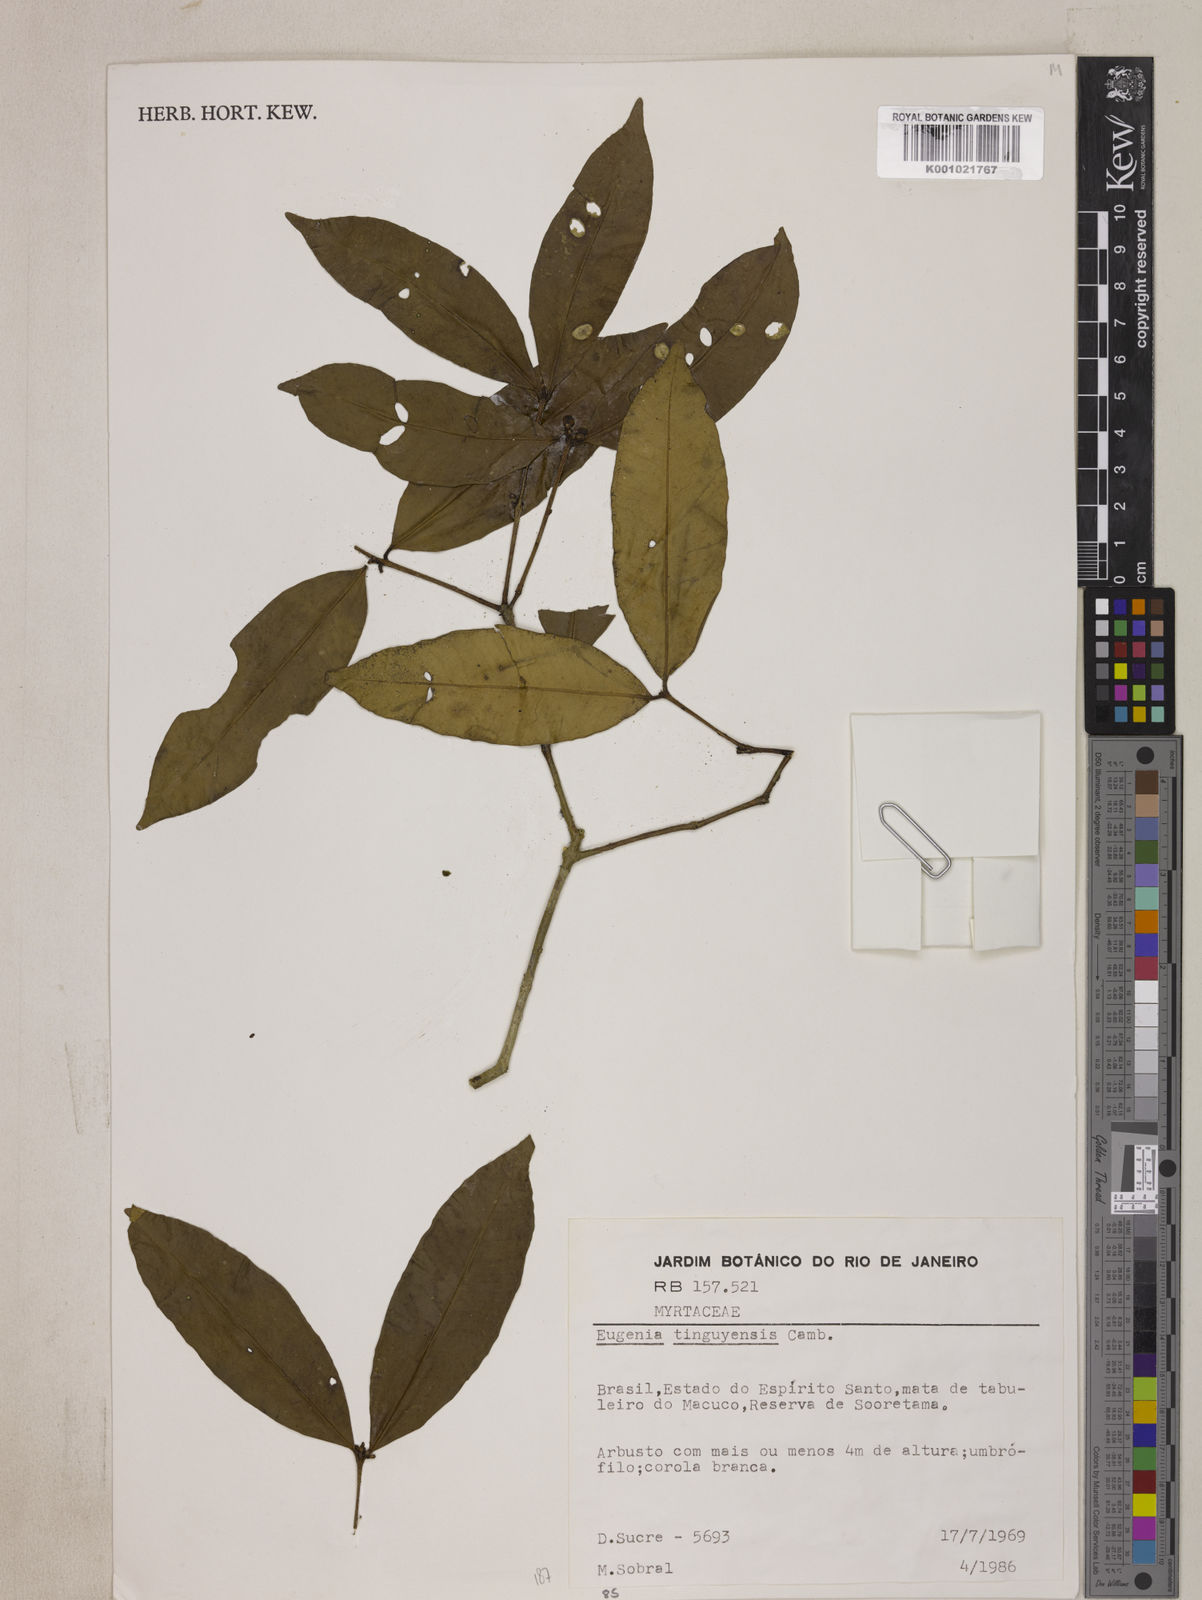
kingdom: Plantae
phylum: Tracheophyta
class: Magnoliopsida
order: Myrtales
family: Myrtaceae
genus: Eugenia
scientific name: Eugenia pisiformis
